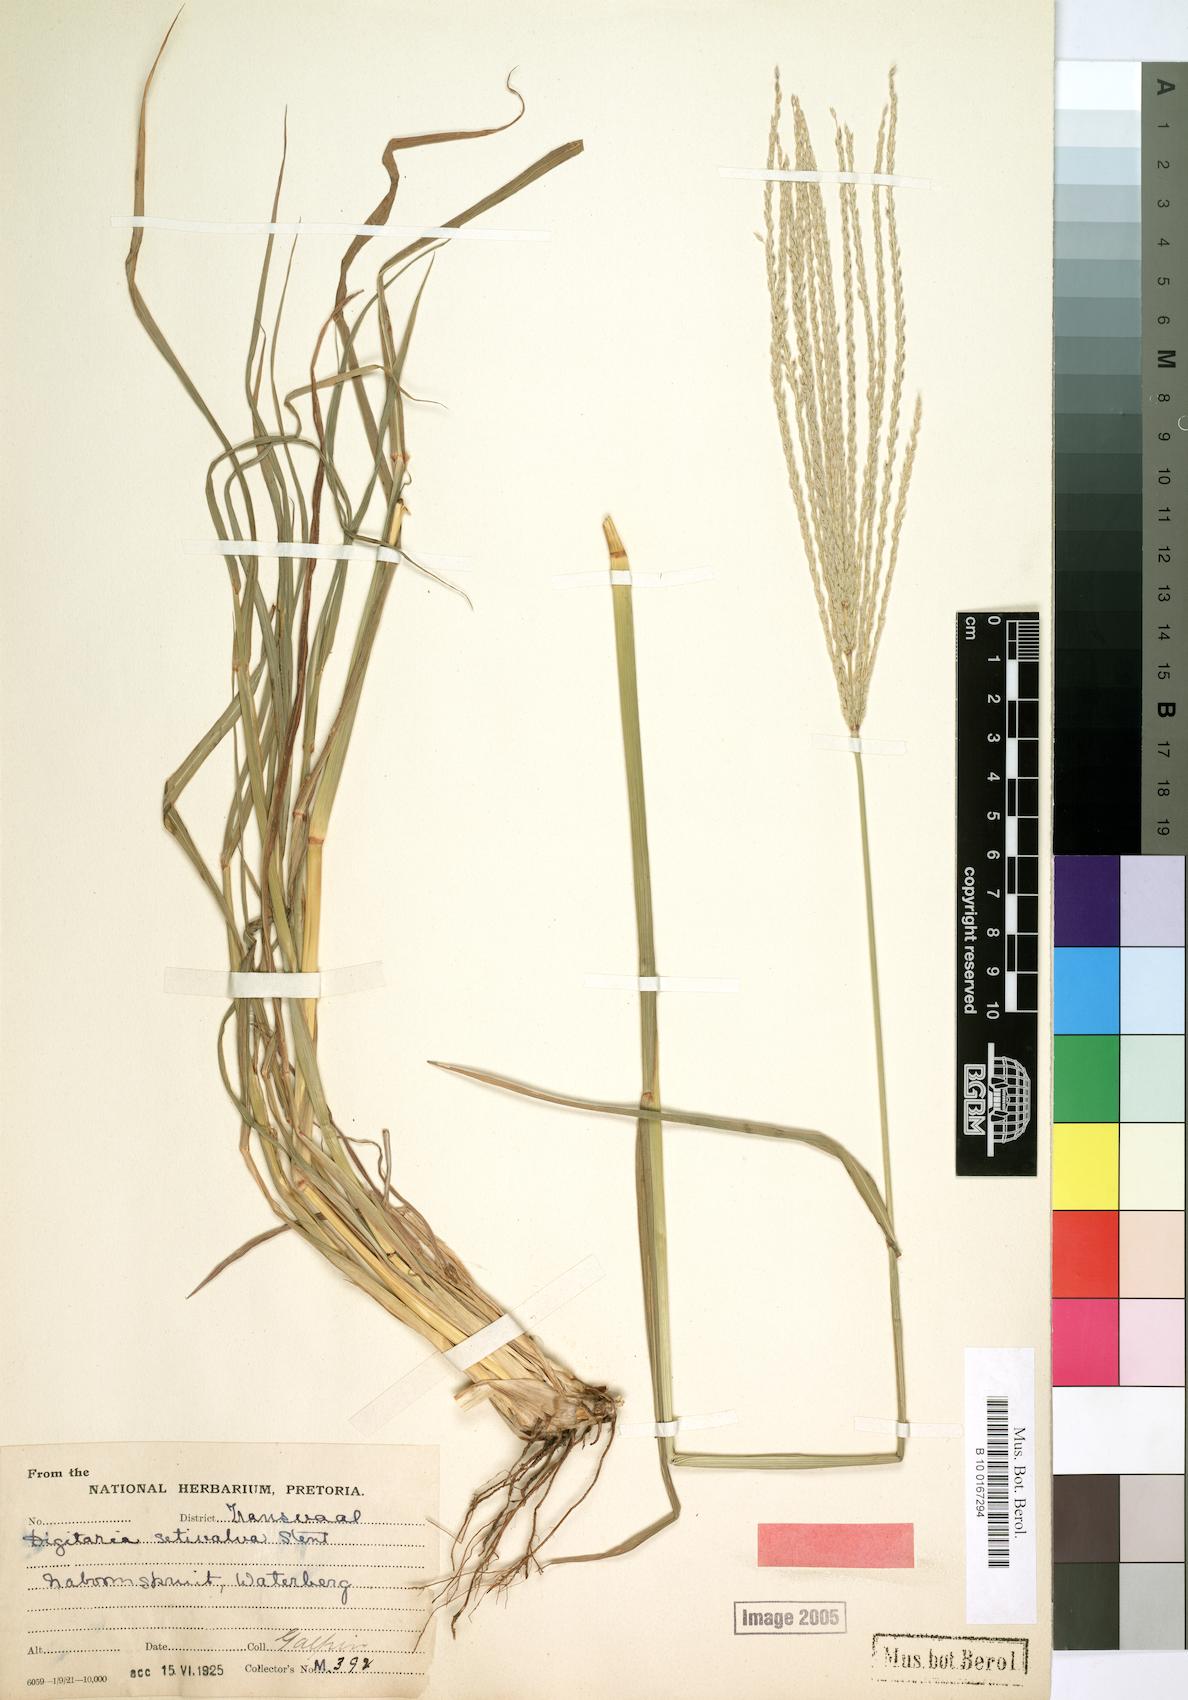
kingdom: Plantae
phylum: Tracheophyta
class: Liliopsida
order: Poales
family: Poaceae
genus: Digitaria
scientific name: Digitaria milanjiana
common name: Madagascar crabgrass
